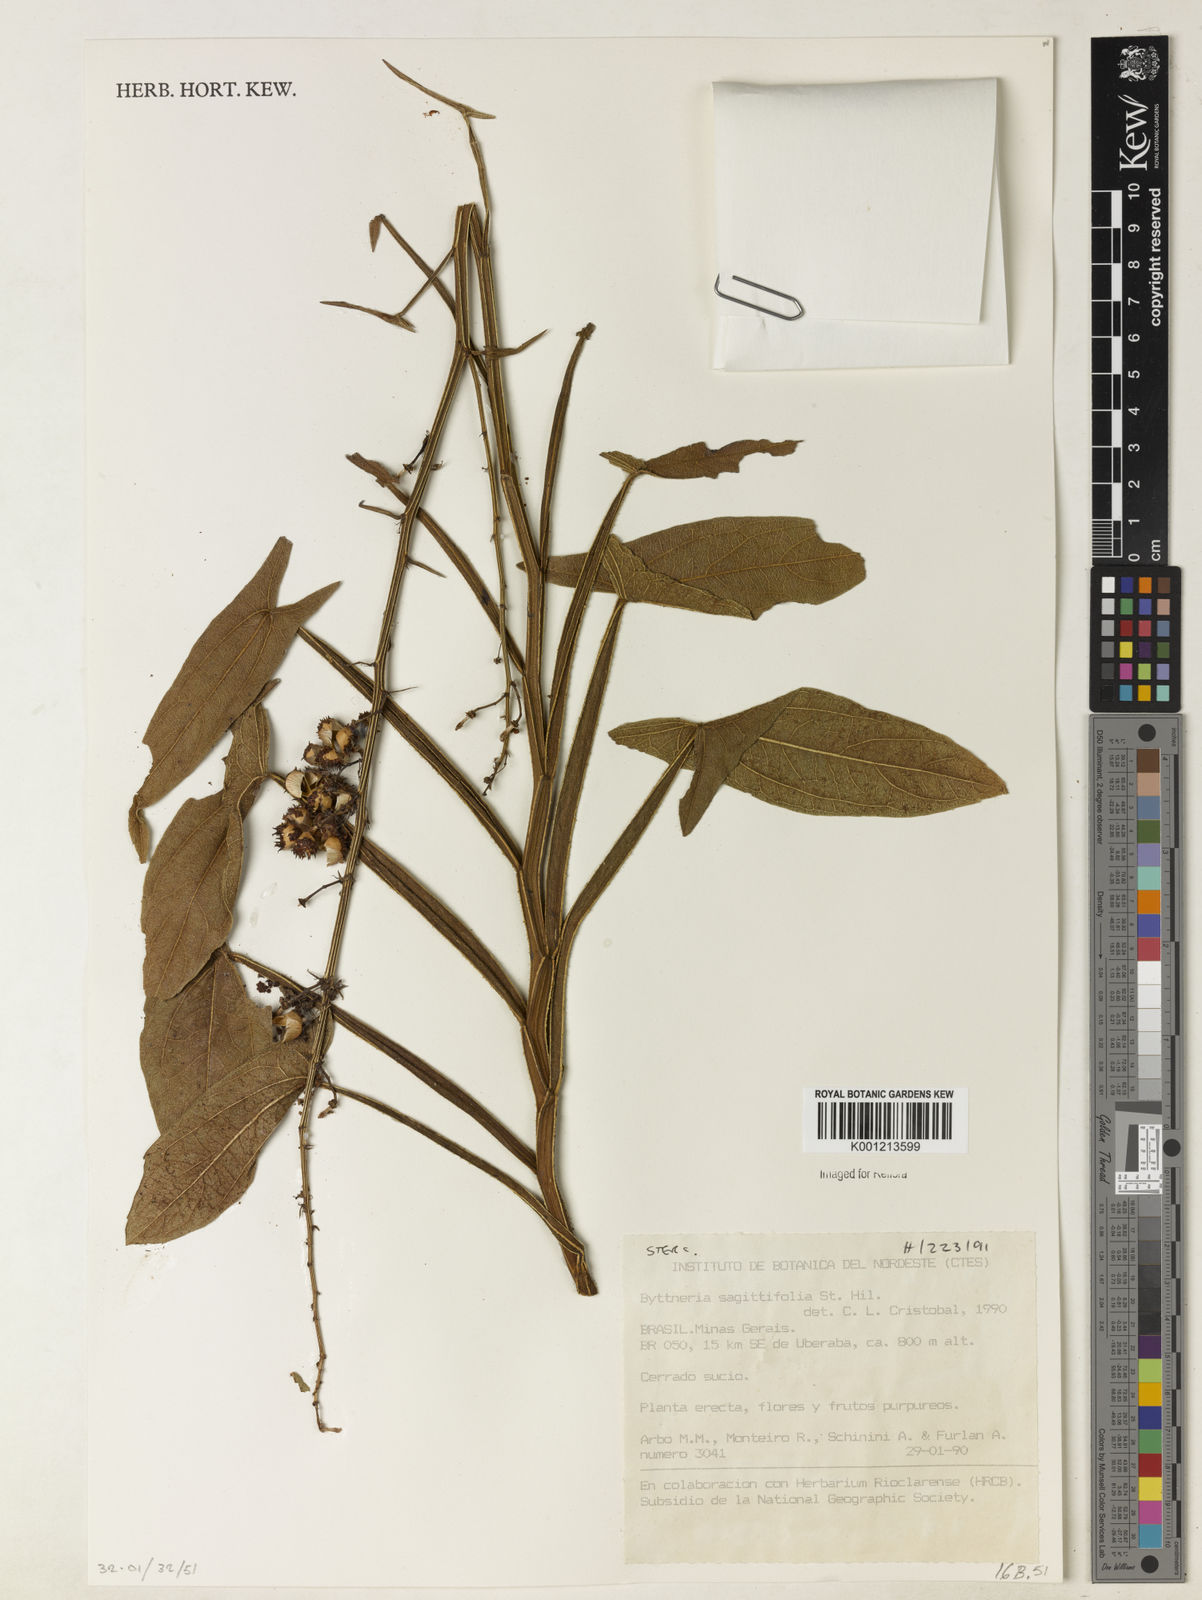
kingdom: Plantae
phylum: Tracheophyta
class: Magnoliopsida
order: Malvales
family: Malvaceae
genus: Byttneria
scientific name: Byttneria sagittifolia
